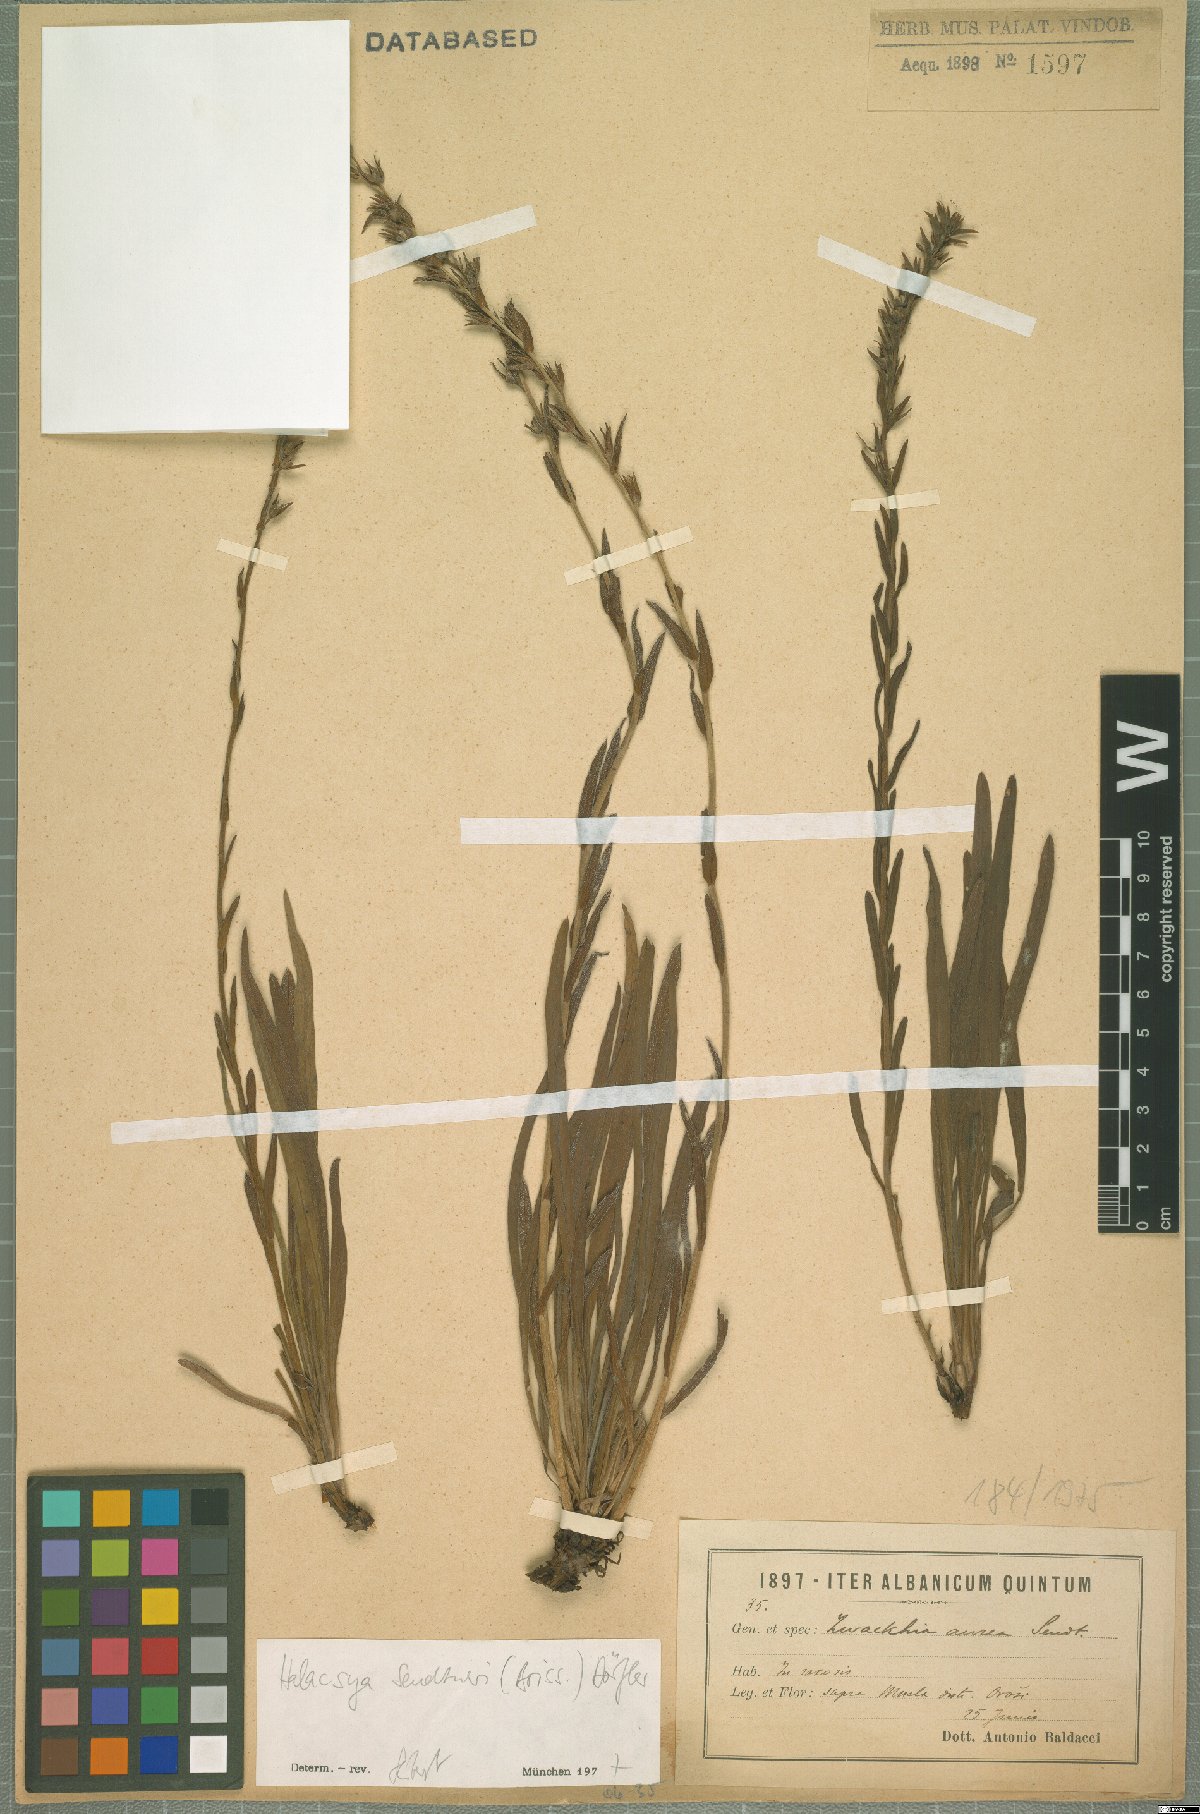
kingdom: Plantae
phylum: Tracheophyta
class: Magnoliopsida
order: Boraginales
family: Boraginaceae
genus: Halacsya
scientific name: Halacsya sendtneri
